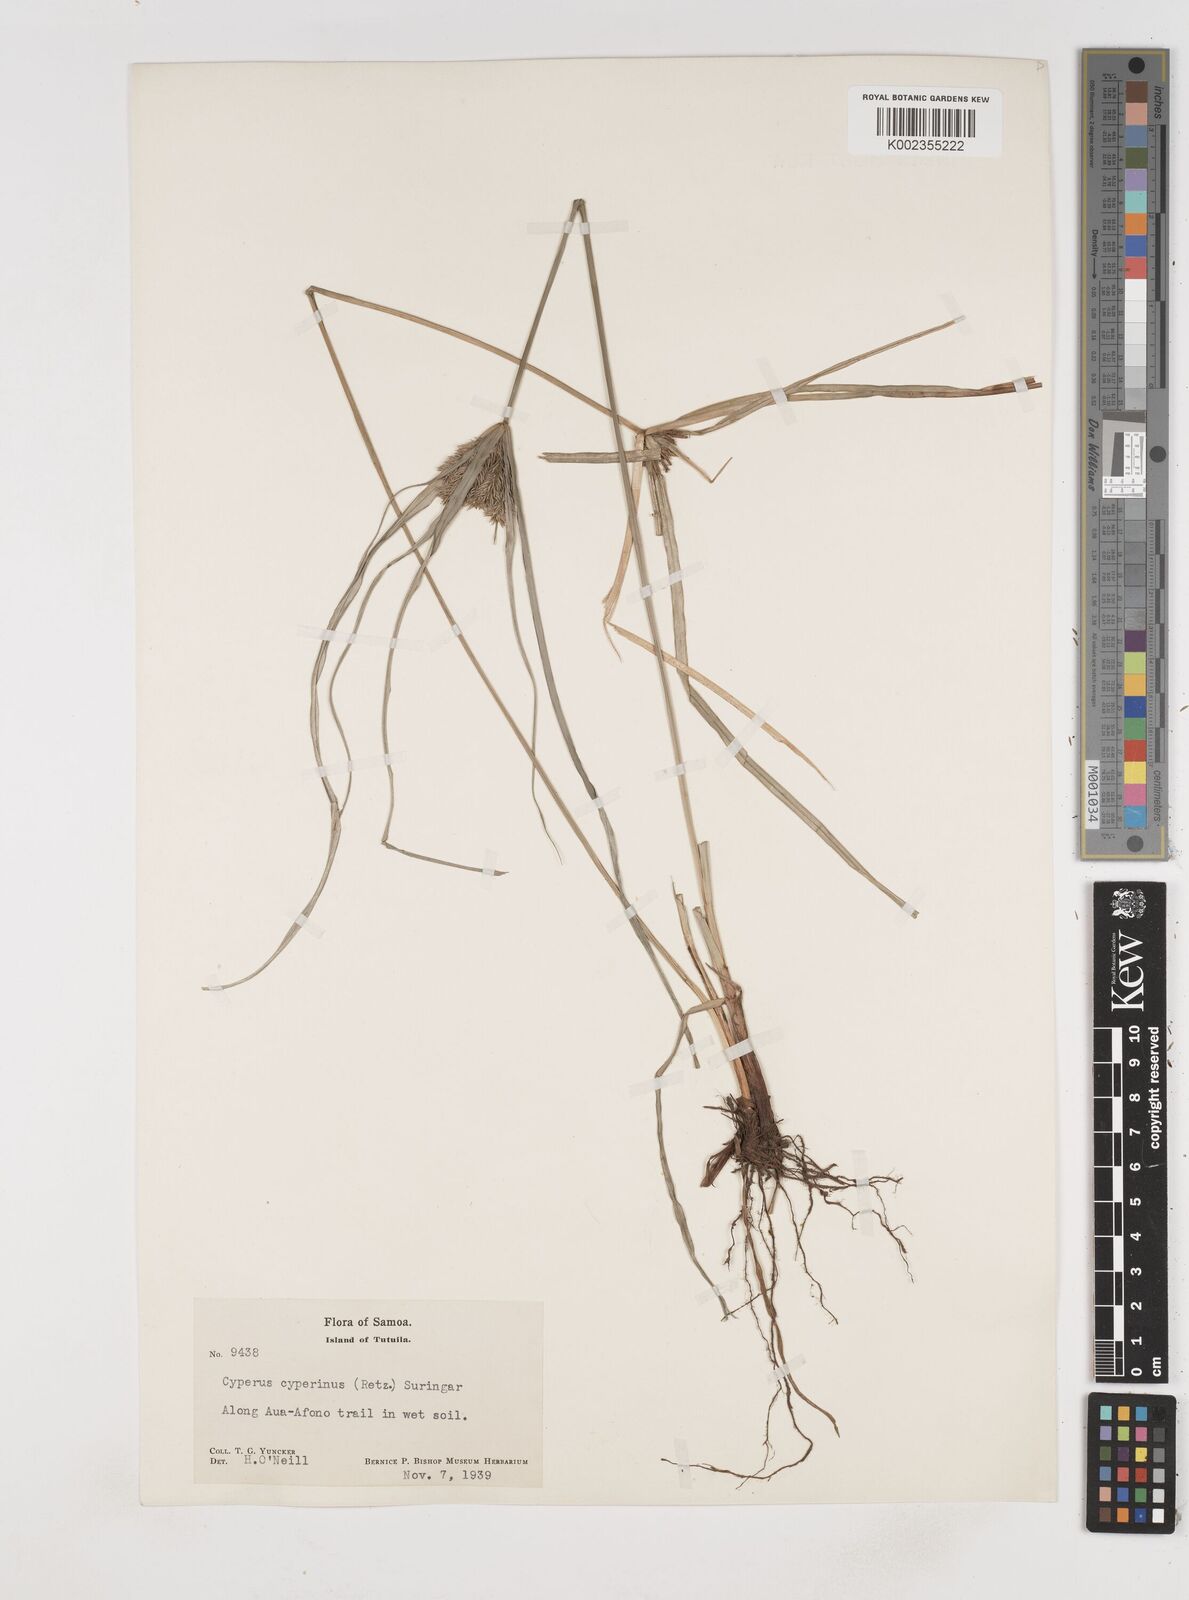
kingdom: Plantae
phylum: Tracheophyta
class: Liliopsida
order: Poales
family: Cyperaceae
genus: Cyperus
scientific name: Cyperus cyperinus
